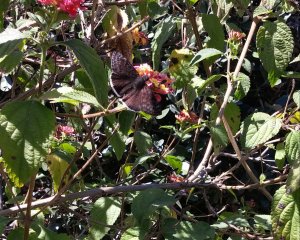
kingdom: Animalia
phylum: Arthropoda
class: Insecta
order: Lepidoptera
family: Hesperiidae
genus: Erynnis
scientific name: Erynnis funeralis
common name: Funereal Duskywing
